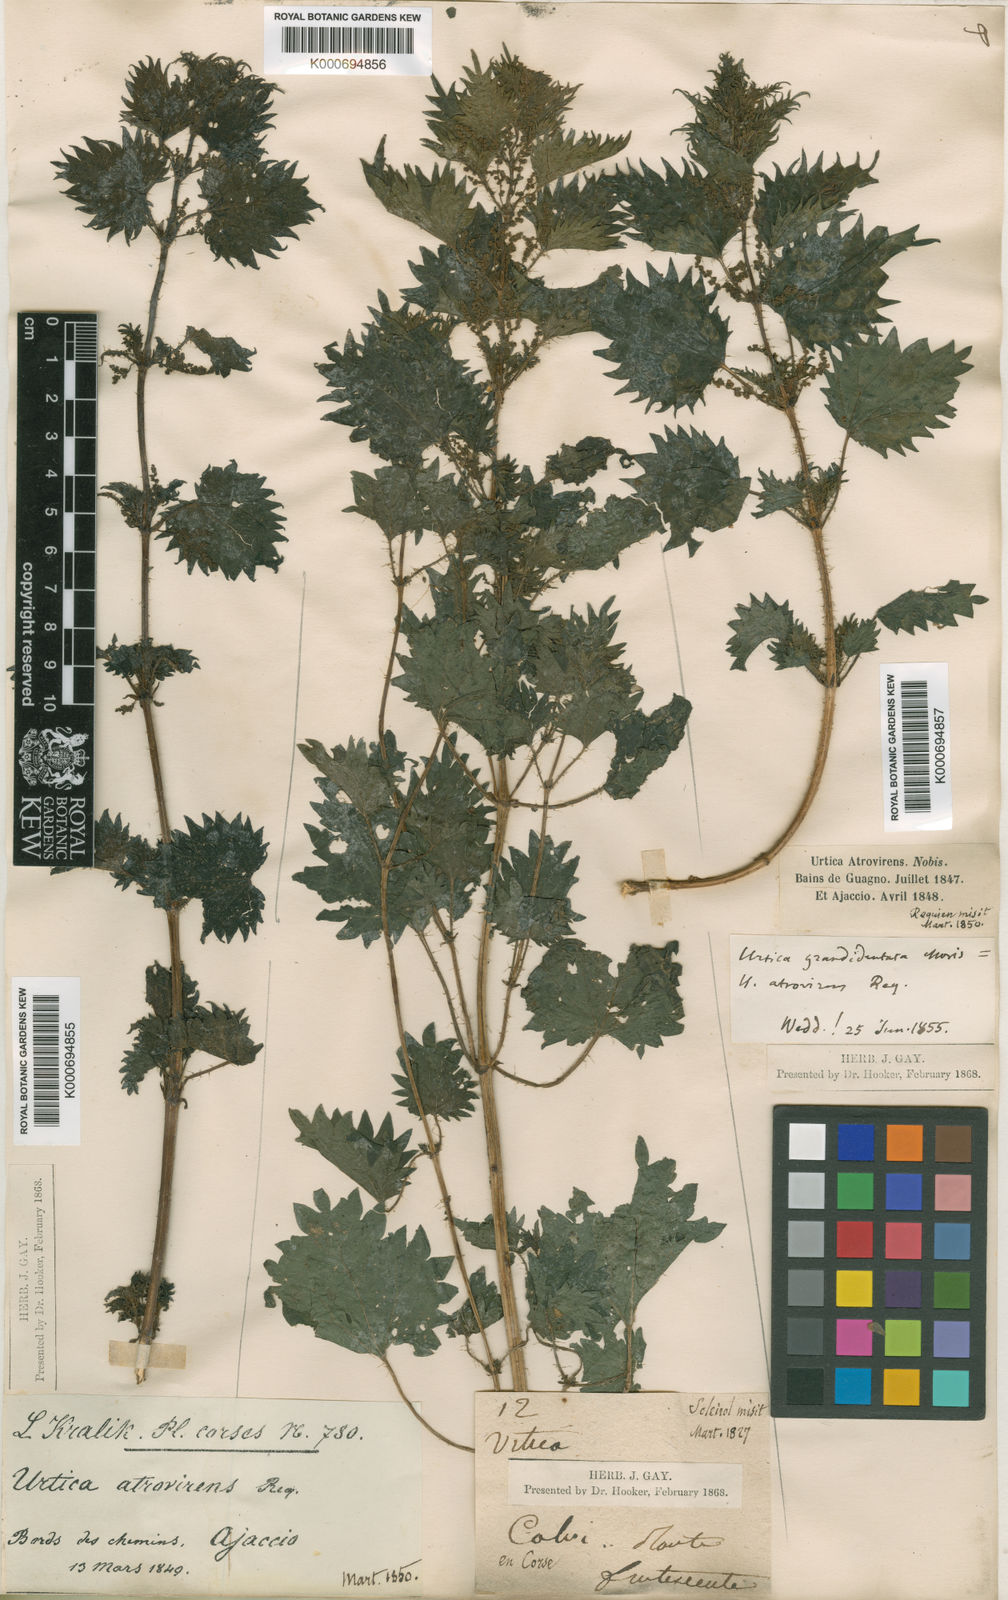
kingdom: Plantae
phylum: Tracheophyta
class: Magnoliopsida
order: Rosales
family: Urticaceae
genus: Urtica
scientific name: Urtica atrovirens
